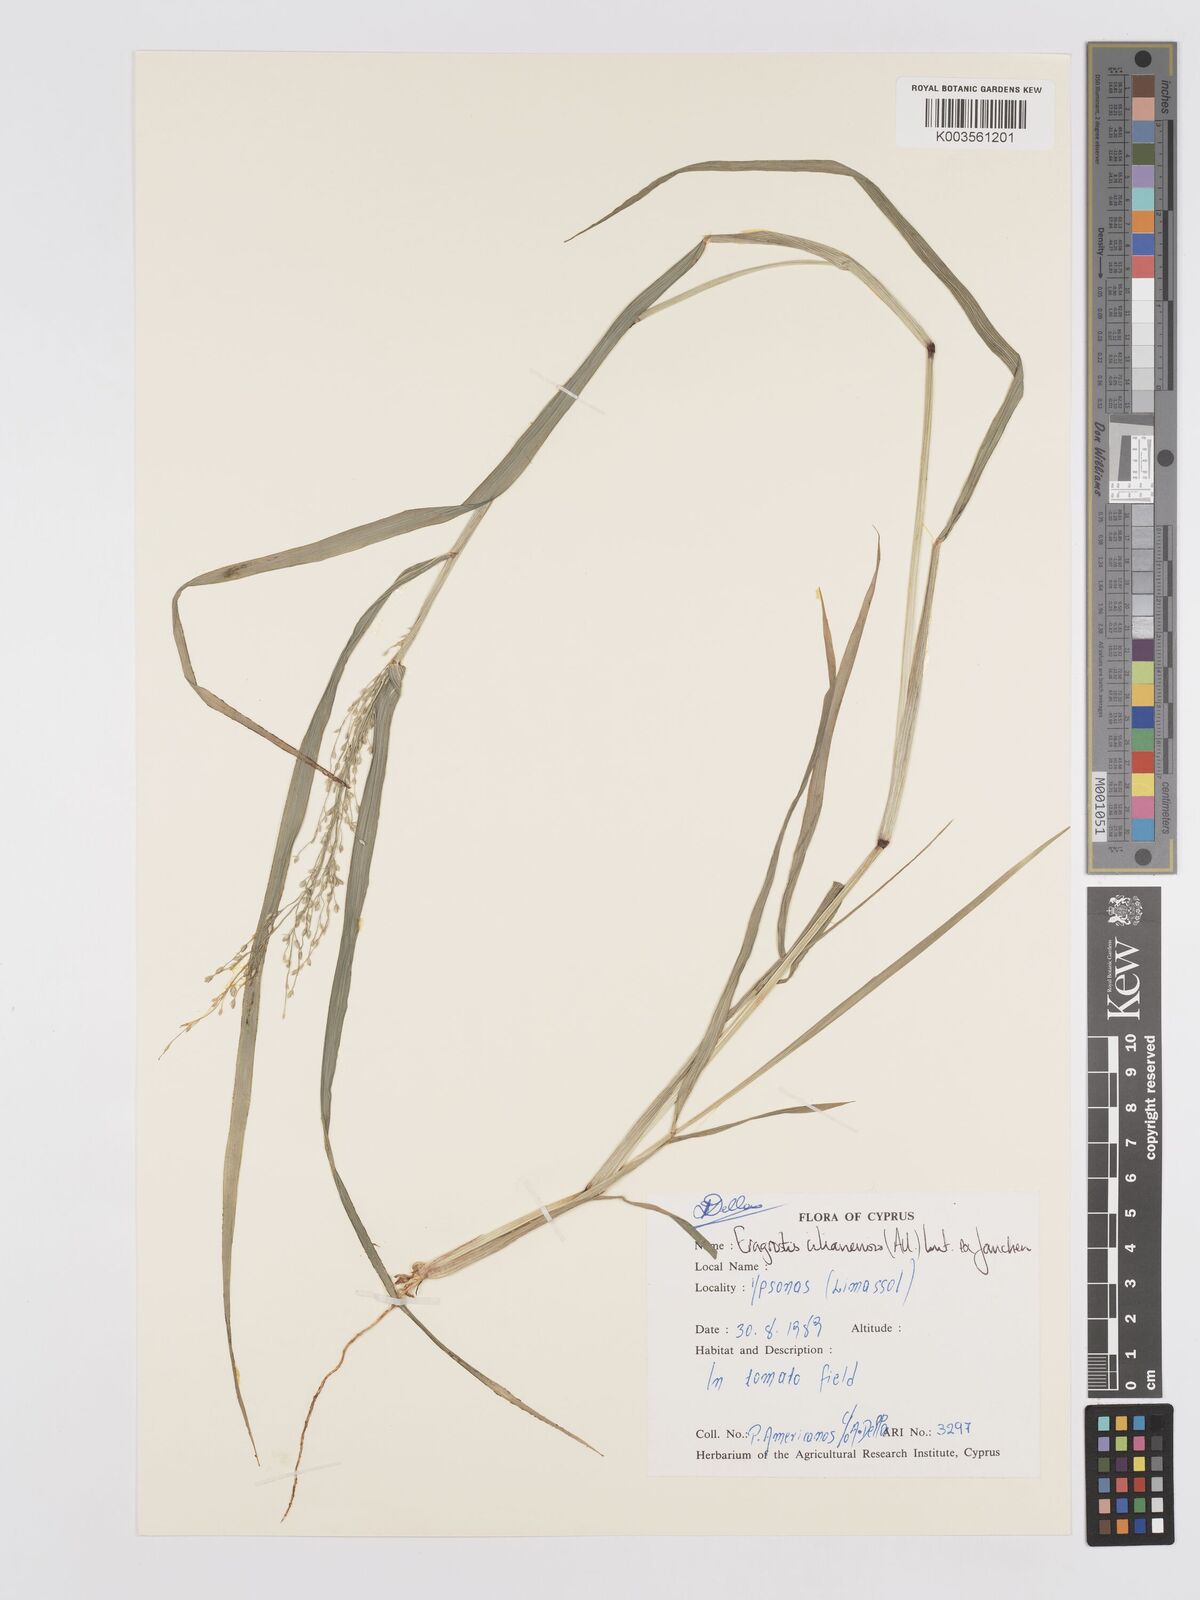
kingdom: Plantae
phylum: Tracheophyta
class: Liliopsida
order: Poales
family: Poaceae
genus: Eragrostis
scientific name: Eragrostis cilianensis
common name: Stinkgrass
